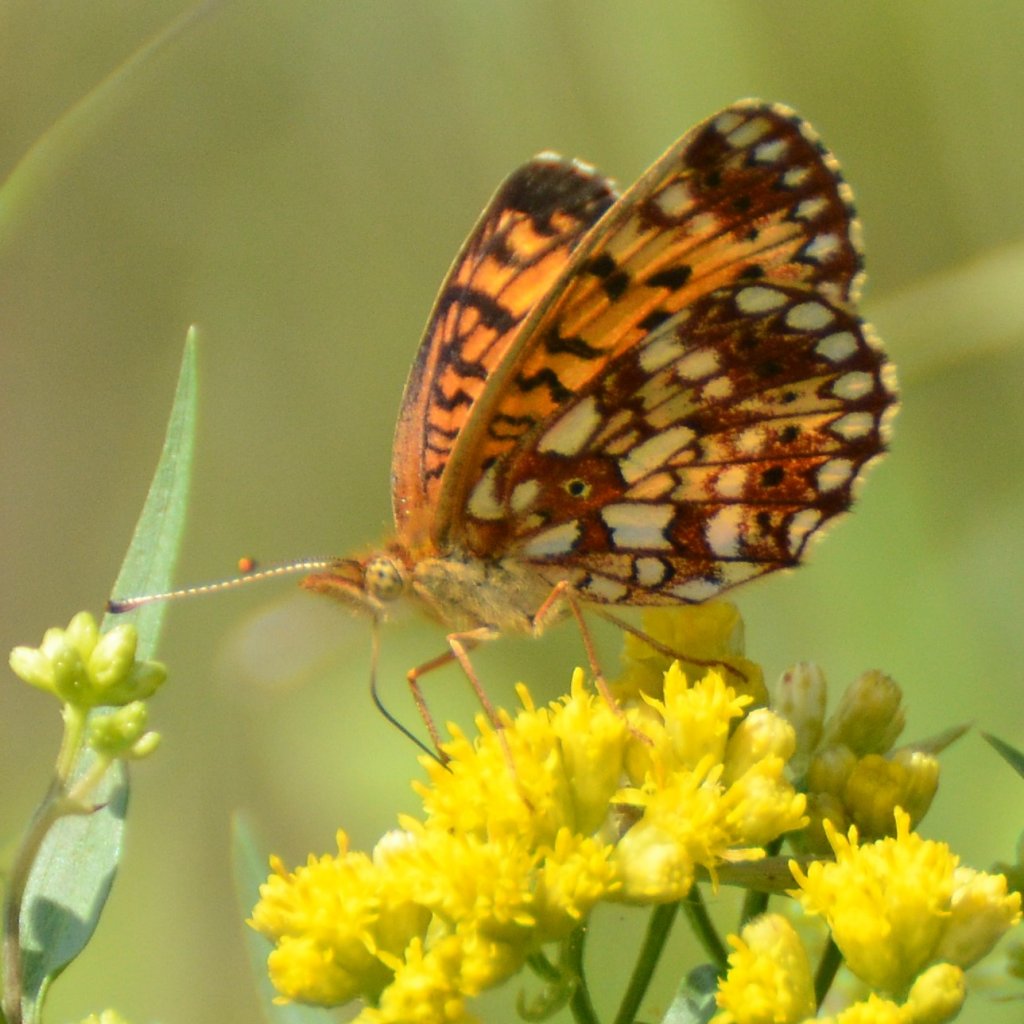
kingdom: Animalia
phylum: Arthropoda
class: Insecta
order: Lepidoptera
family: Nymphalidae
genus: Boloria
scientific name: Boloria selene
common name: Silver-bordered Fritillary
